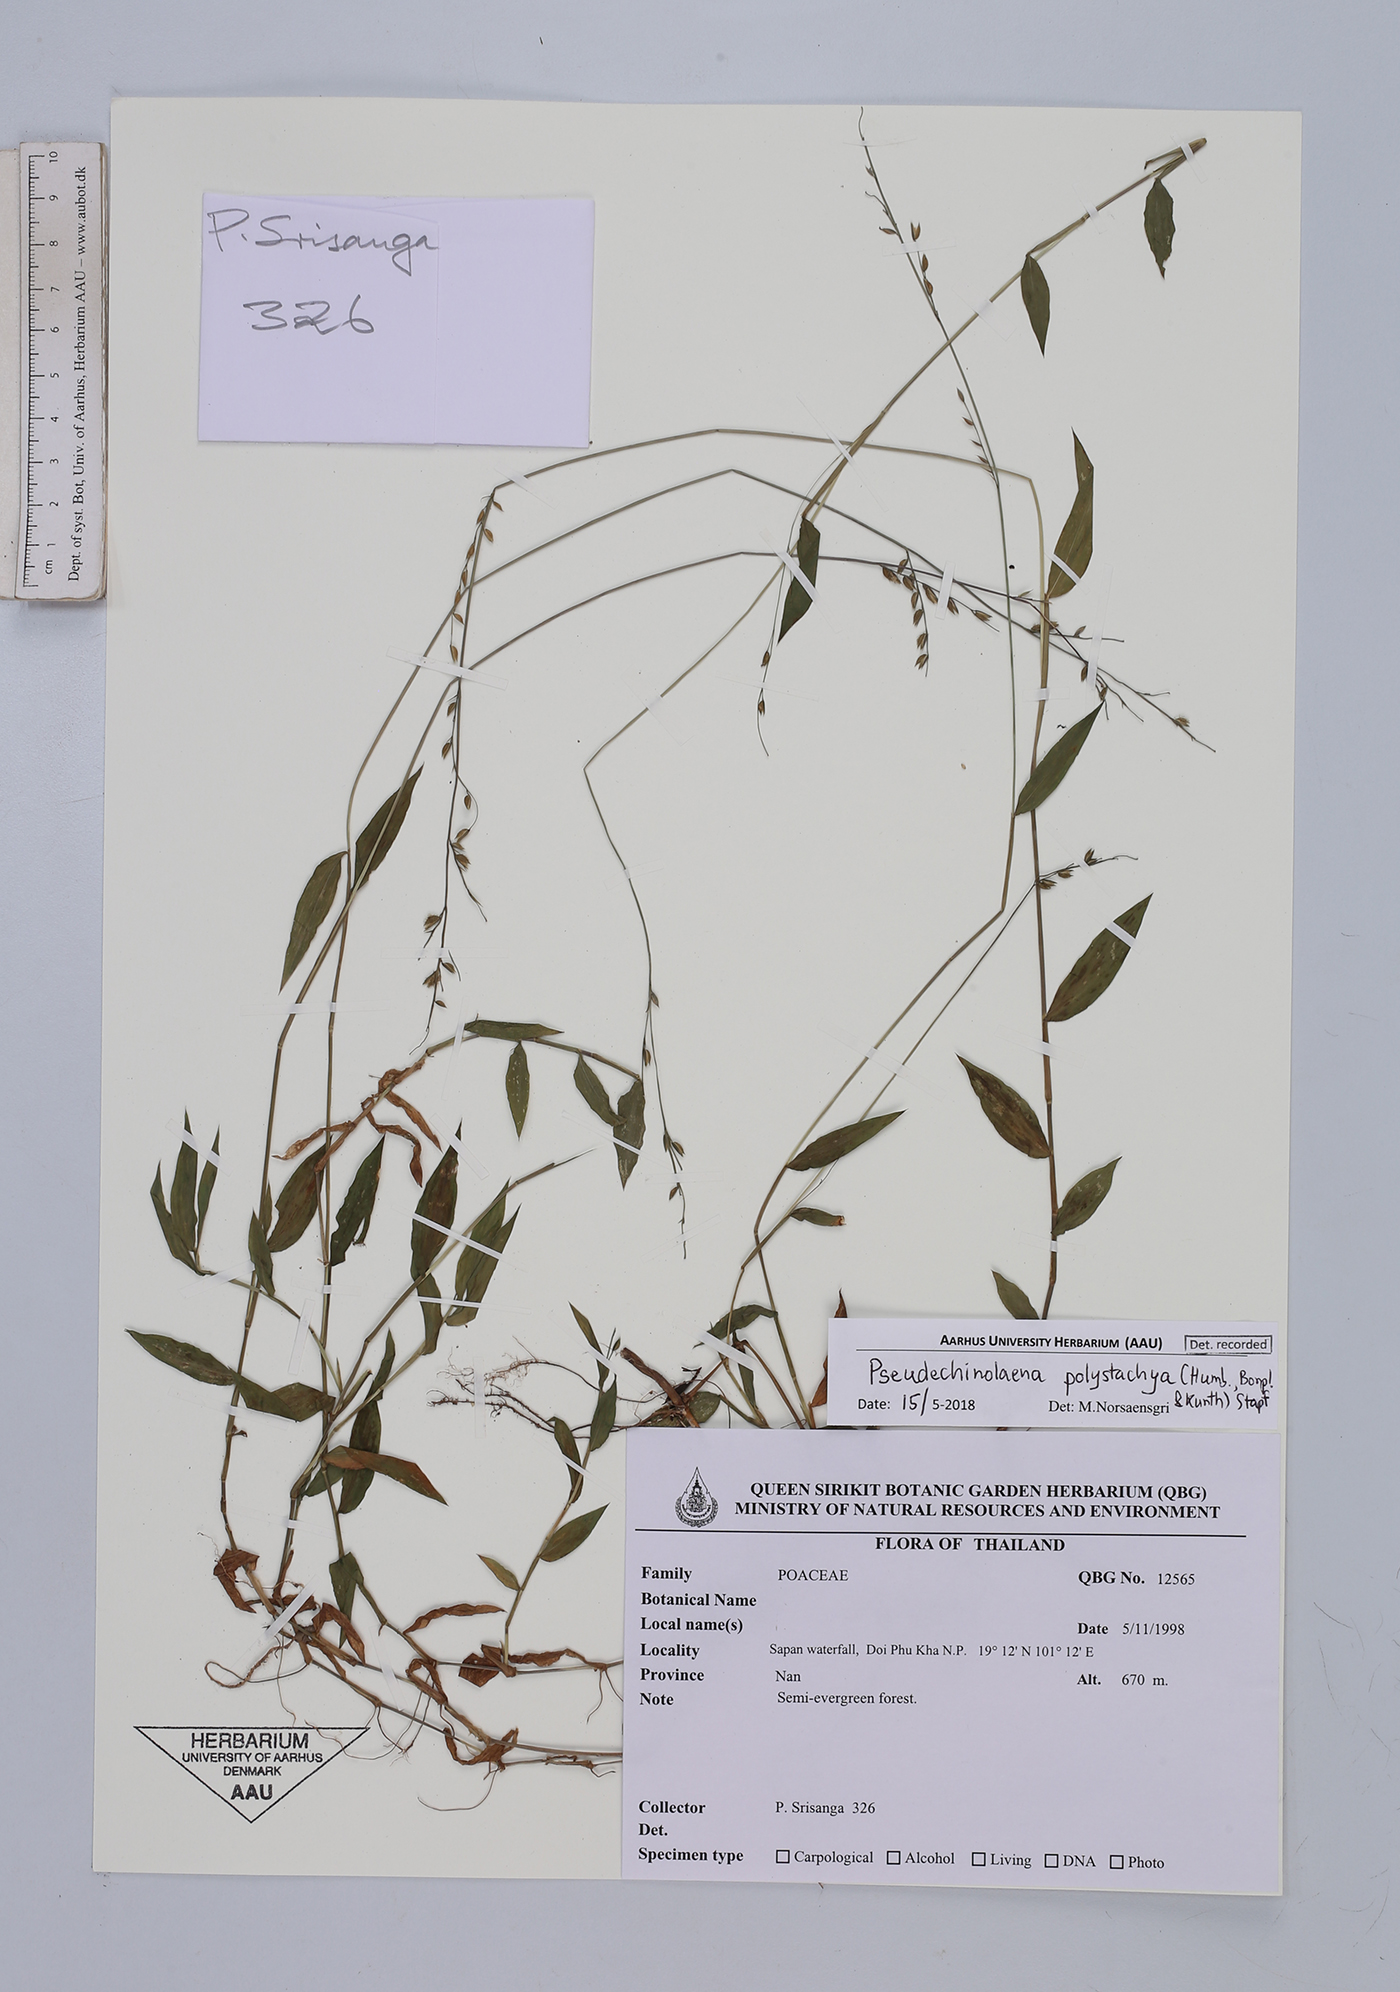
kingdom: Plantae
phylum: Tracheophyta
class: Liliopsida
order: Poales
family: Poaceae
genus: Pseudechinolaena
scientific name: Pseudechinolaena polystachya
